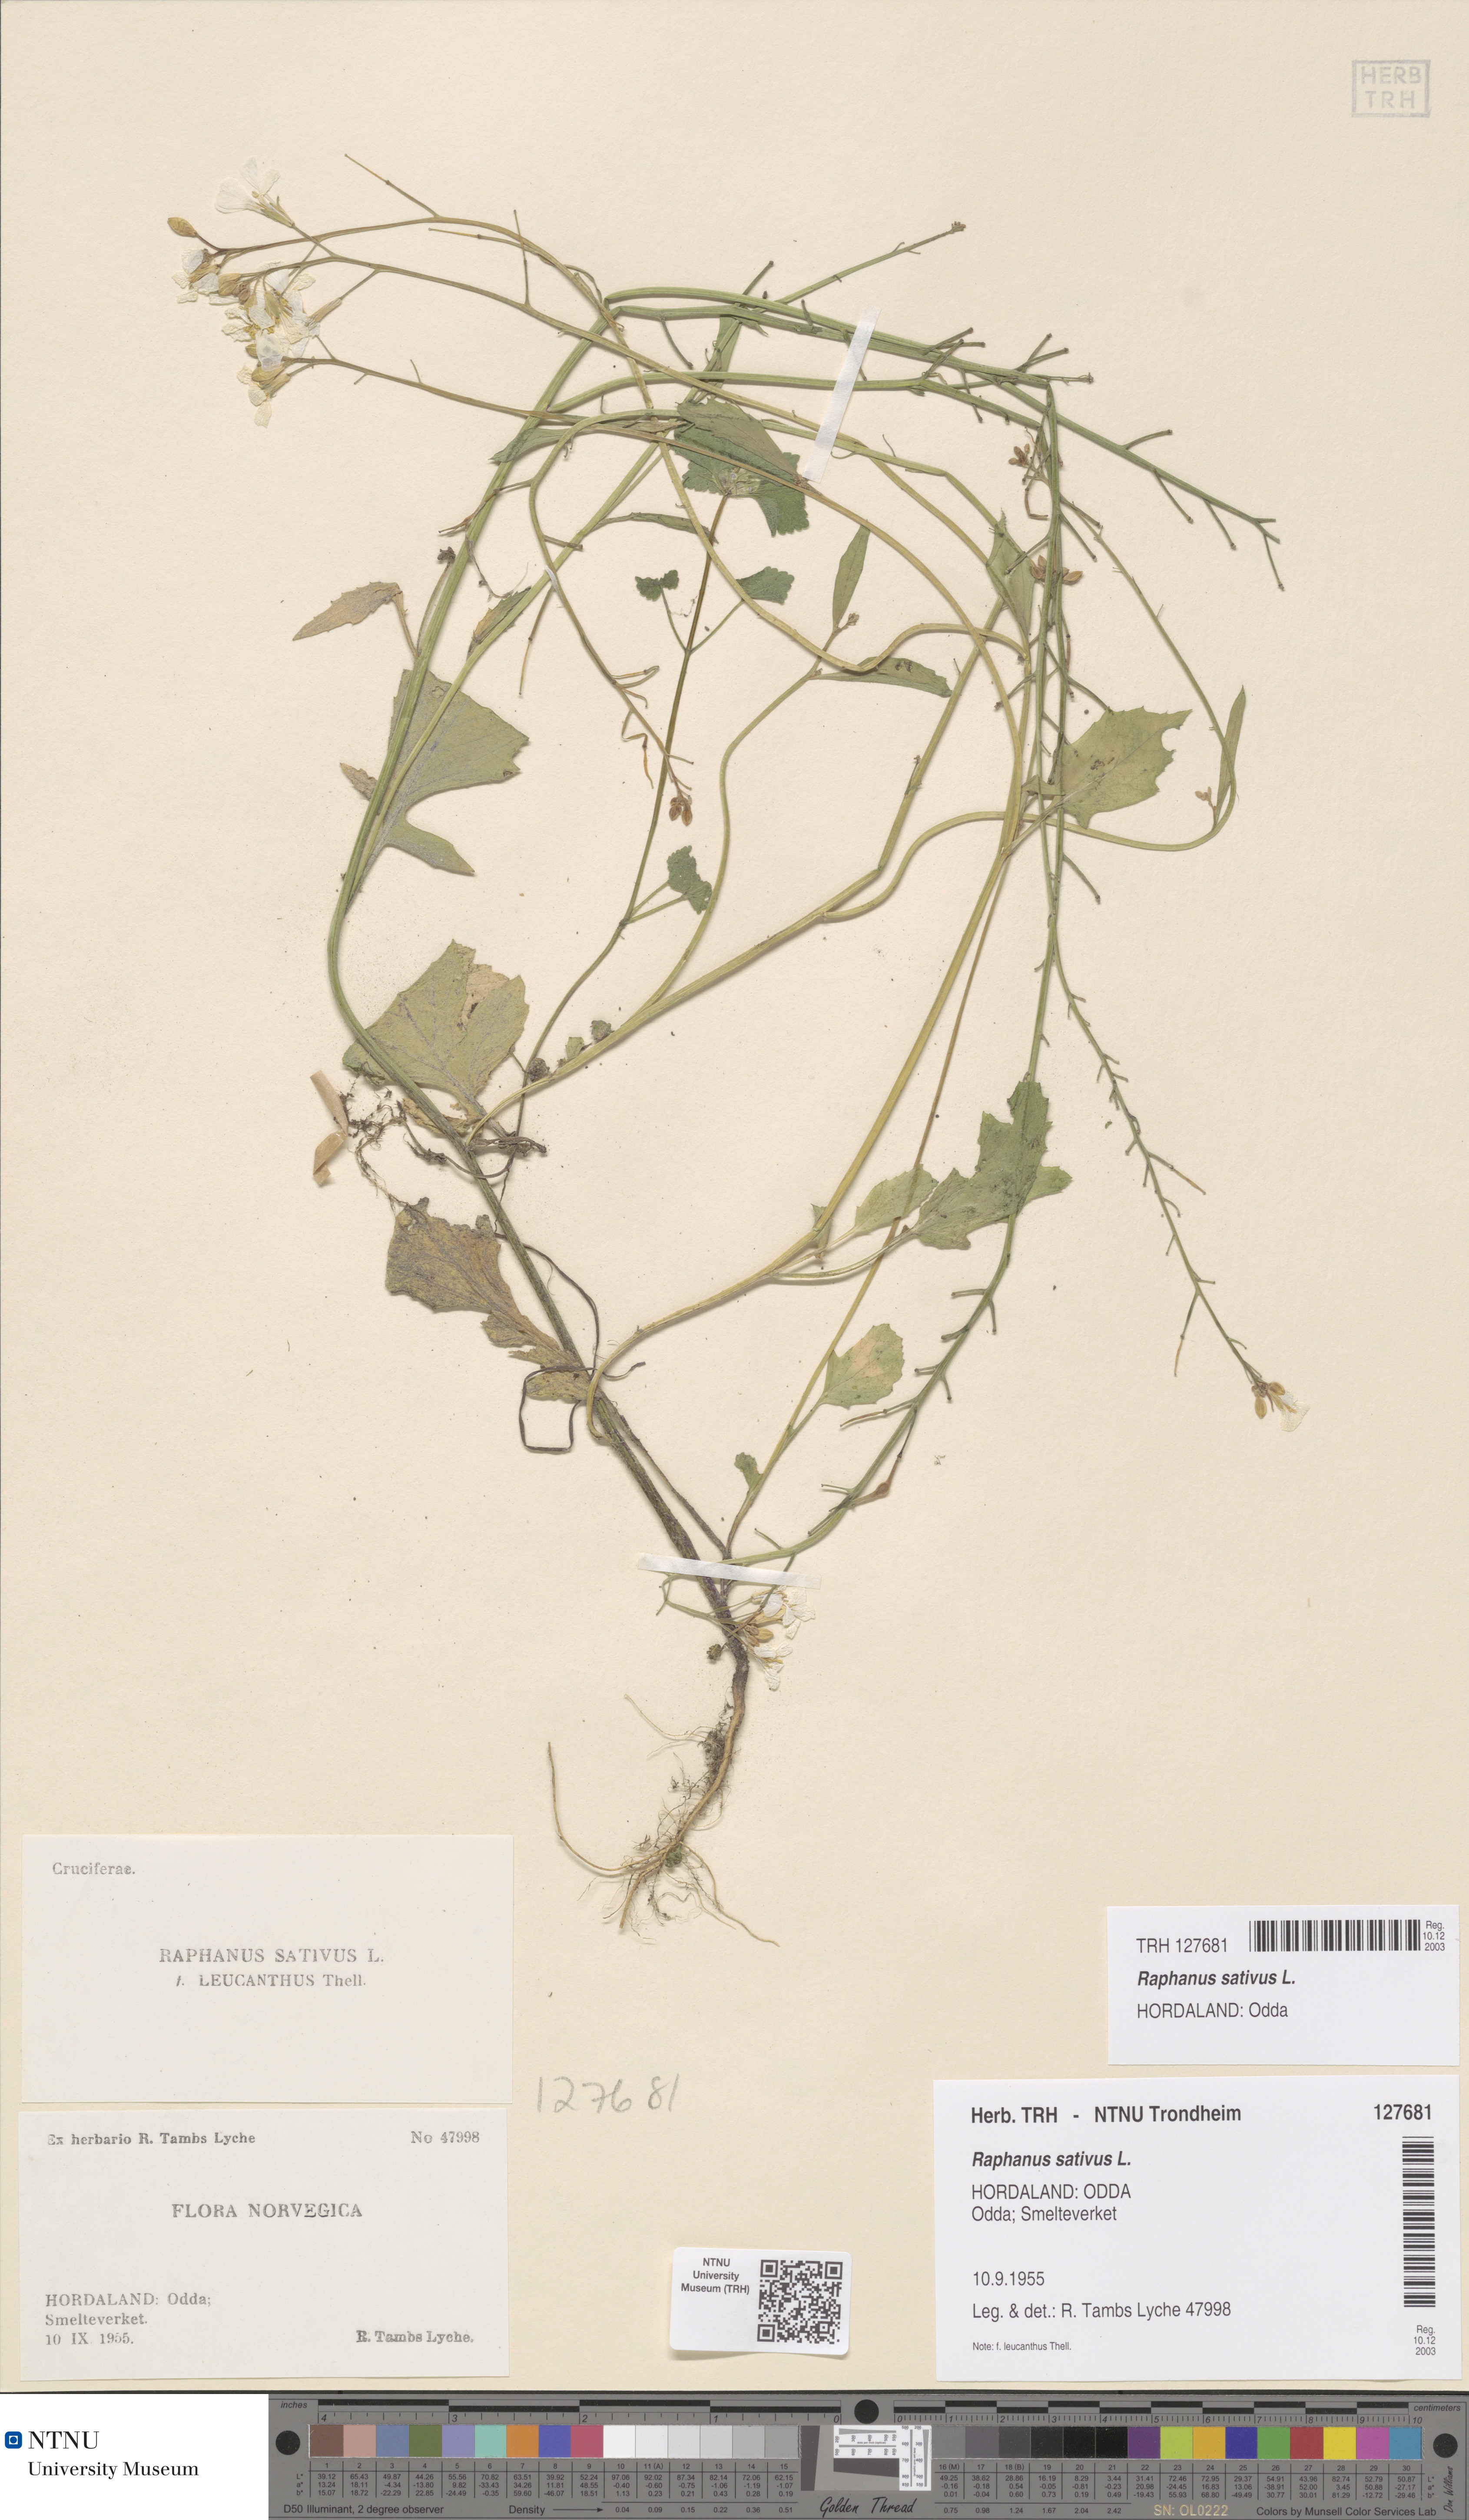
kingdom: Plantae
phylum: Tracheophyta
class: Magnoliopsida
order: Brassicales
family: Brassicaceae
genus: Raphanus
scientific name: Raphanus sativus
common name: Cultivated radish
